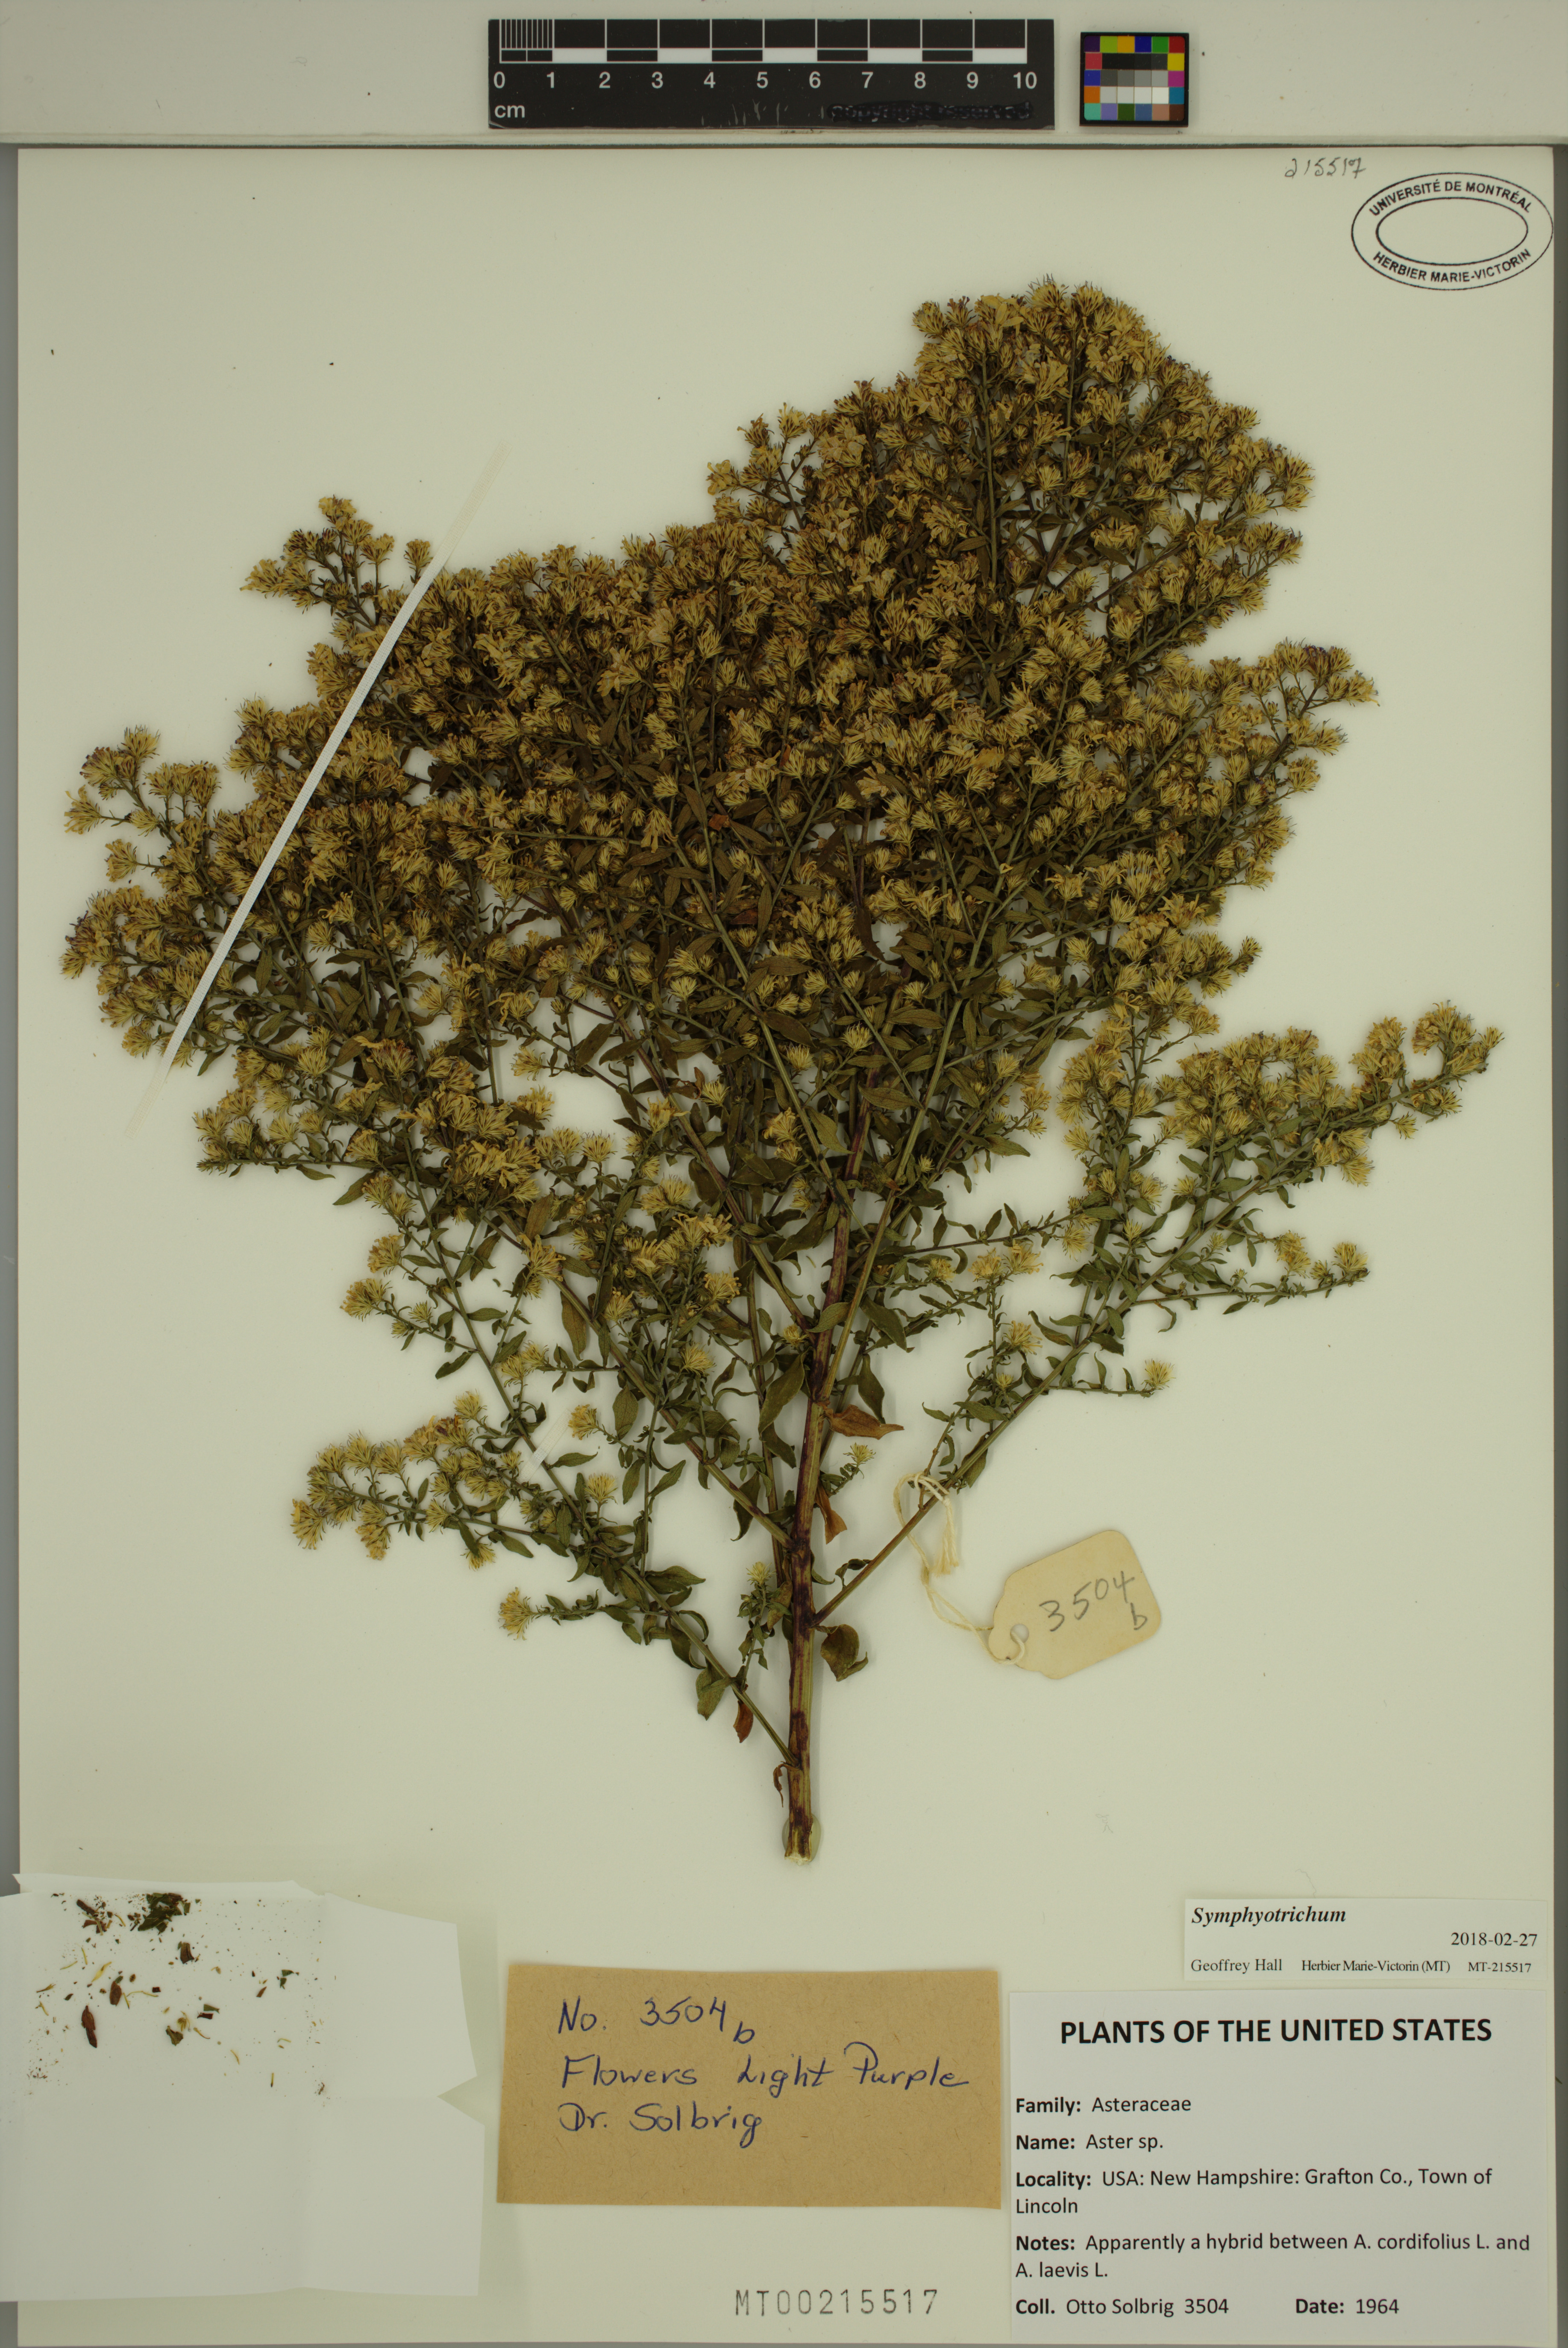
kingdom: Plantae
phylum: Tracheophyta
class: Magnoliopsida
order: Asterales
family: Asteraceae
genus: Symphyotrichum
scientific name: Symphyotrichum
